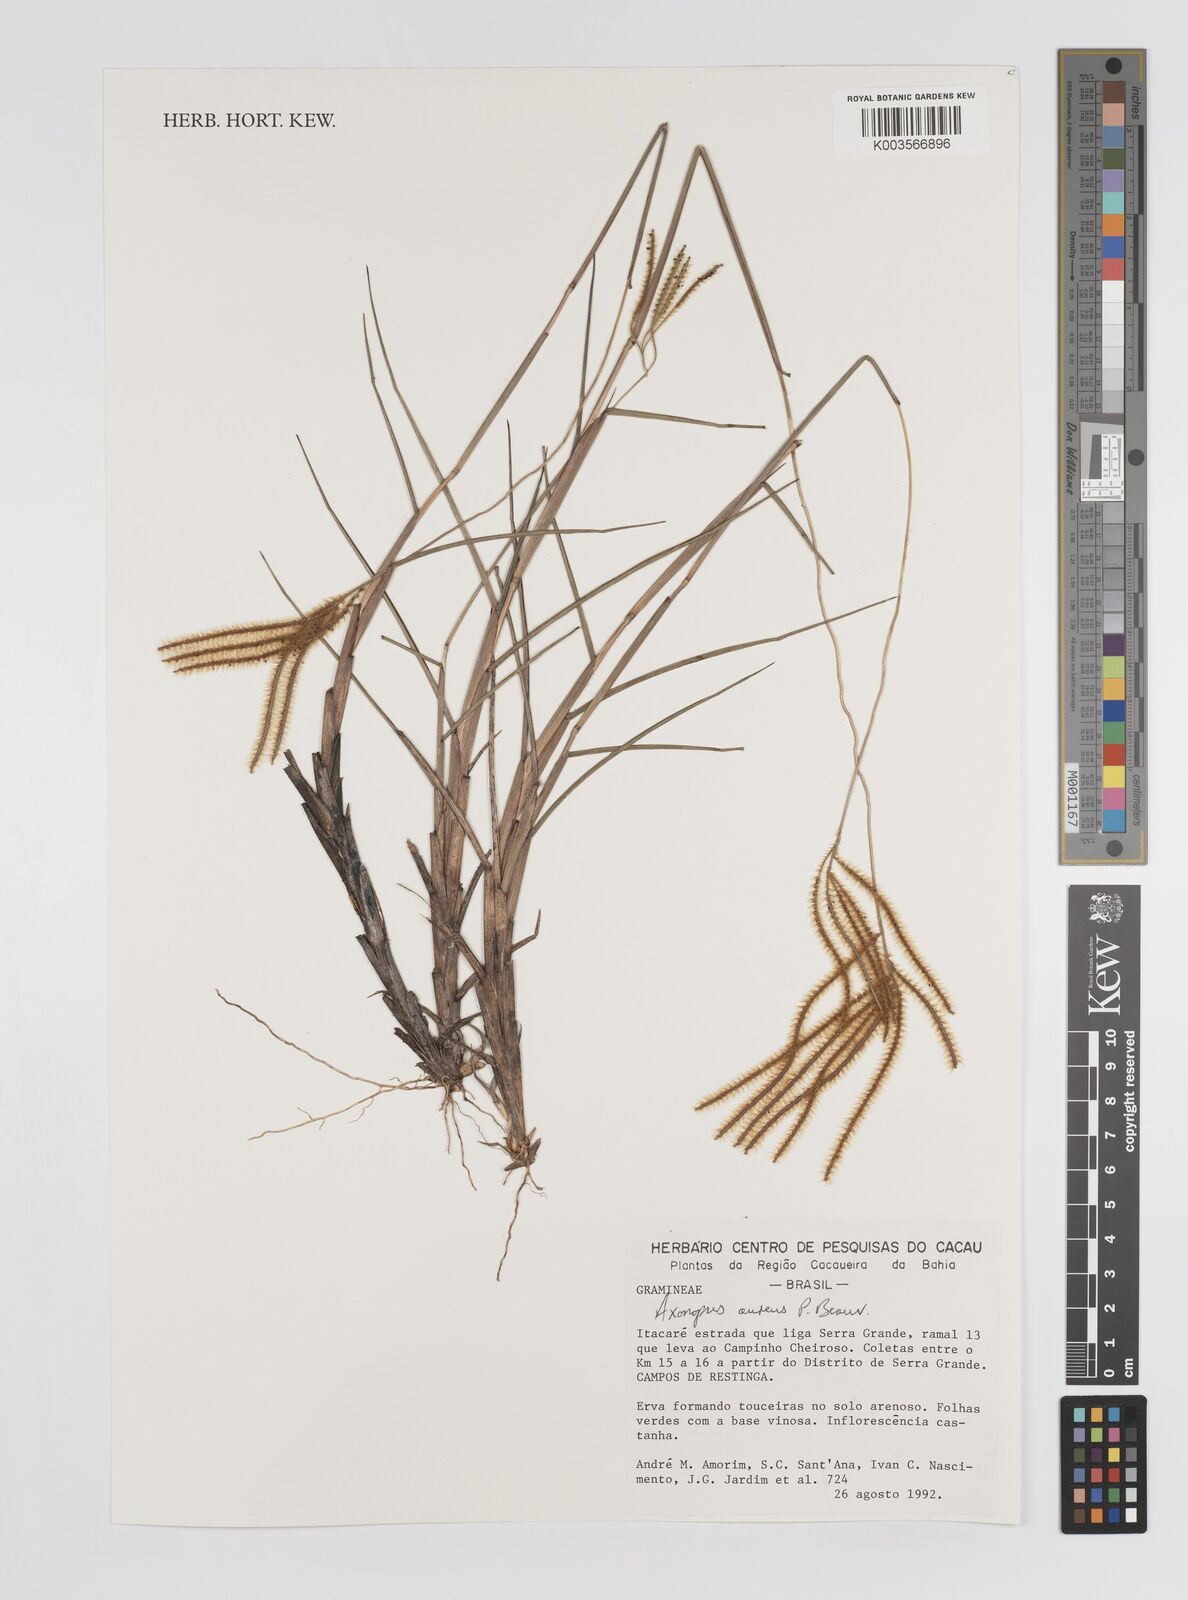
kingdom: Plantae
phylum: Tracheophyta
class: Liliopsida
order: Poales
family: Poaceae
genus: Axonopus
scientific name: Axonopus aureus
